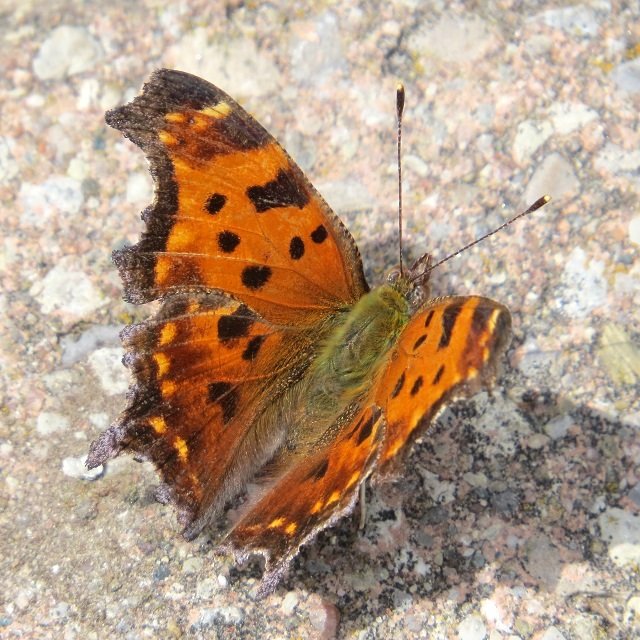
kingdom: Animalia
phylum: Arthropoda
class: Insecta
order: Lepidoptera
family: Nymphalidae
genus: Polygonia
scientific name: Polygonia comma
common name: Eastern Comma
